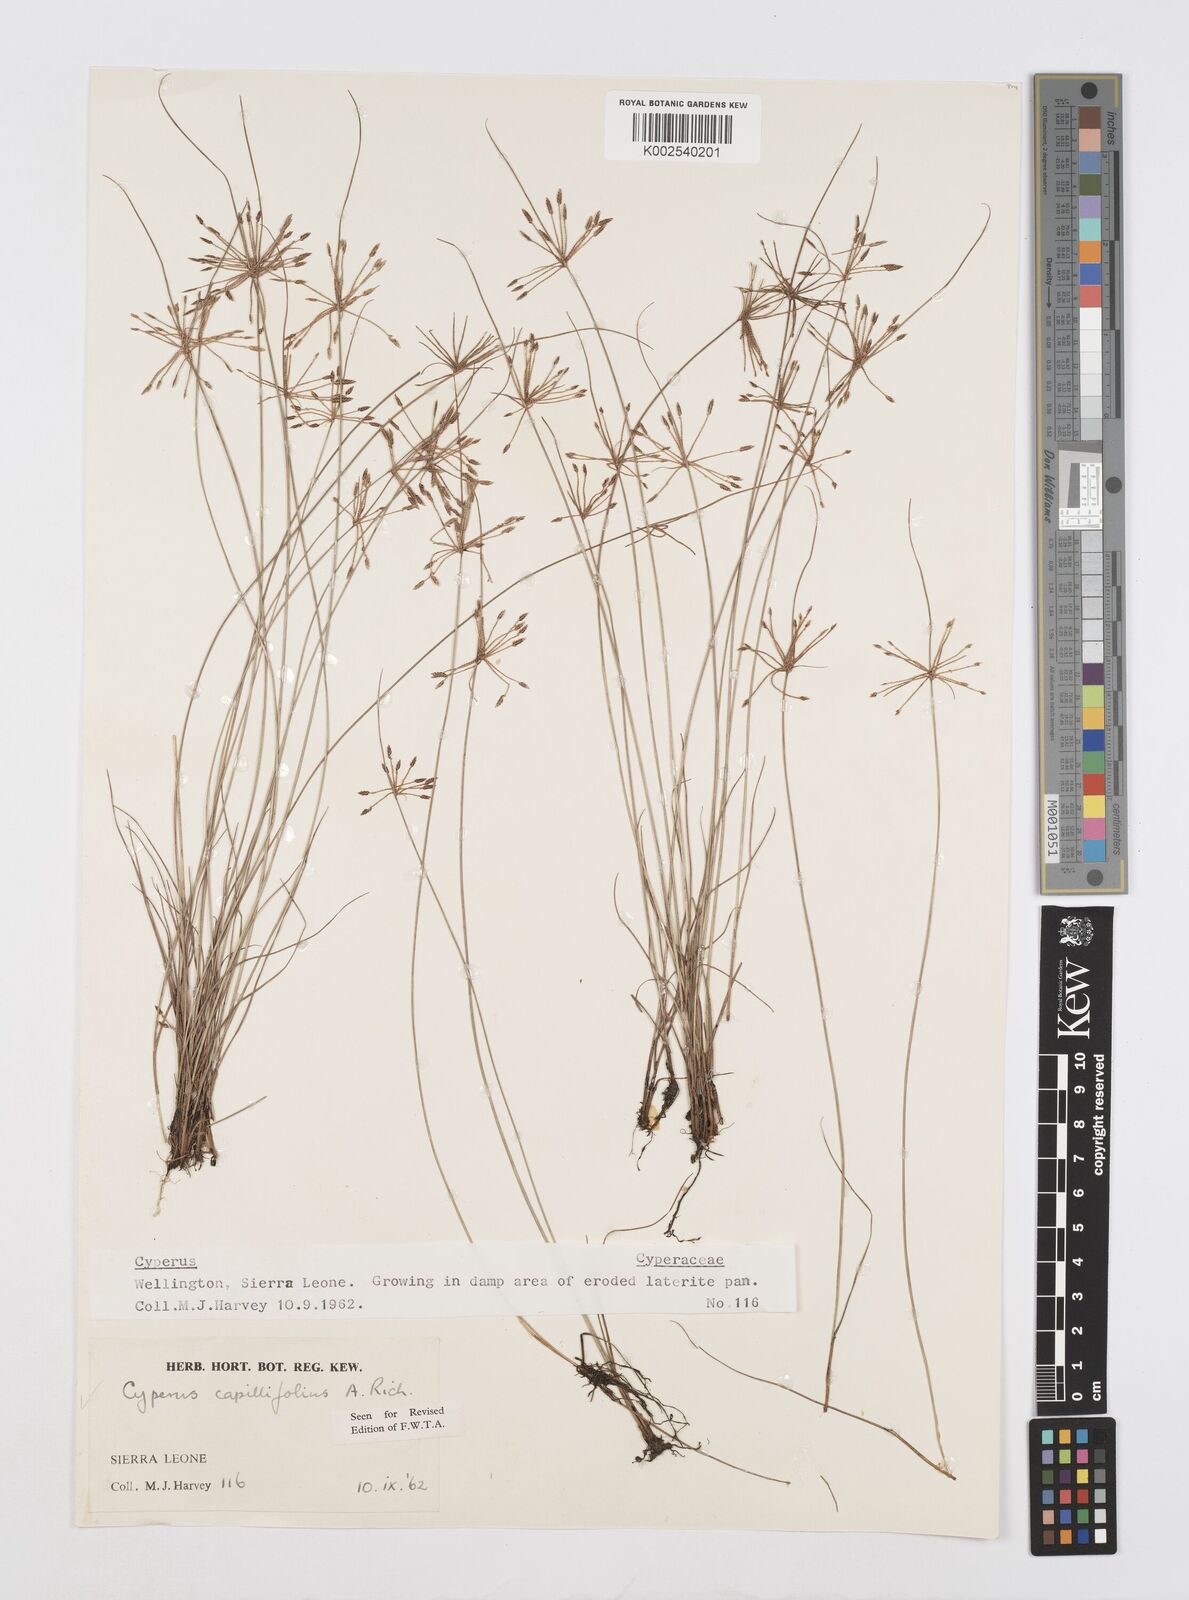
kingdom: Plantae
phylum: Tracheophyta
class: Liliopsida
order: Poales
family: Cyperaceae
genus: Cyperus
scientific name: Cyperus capillifolius
